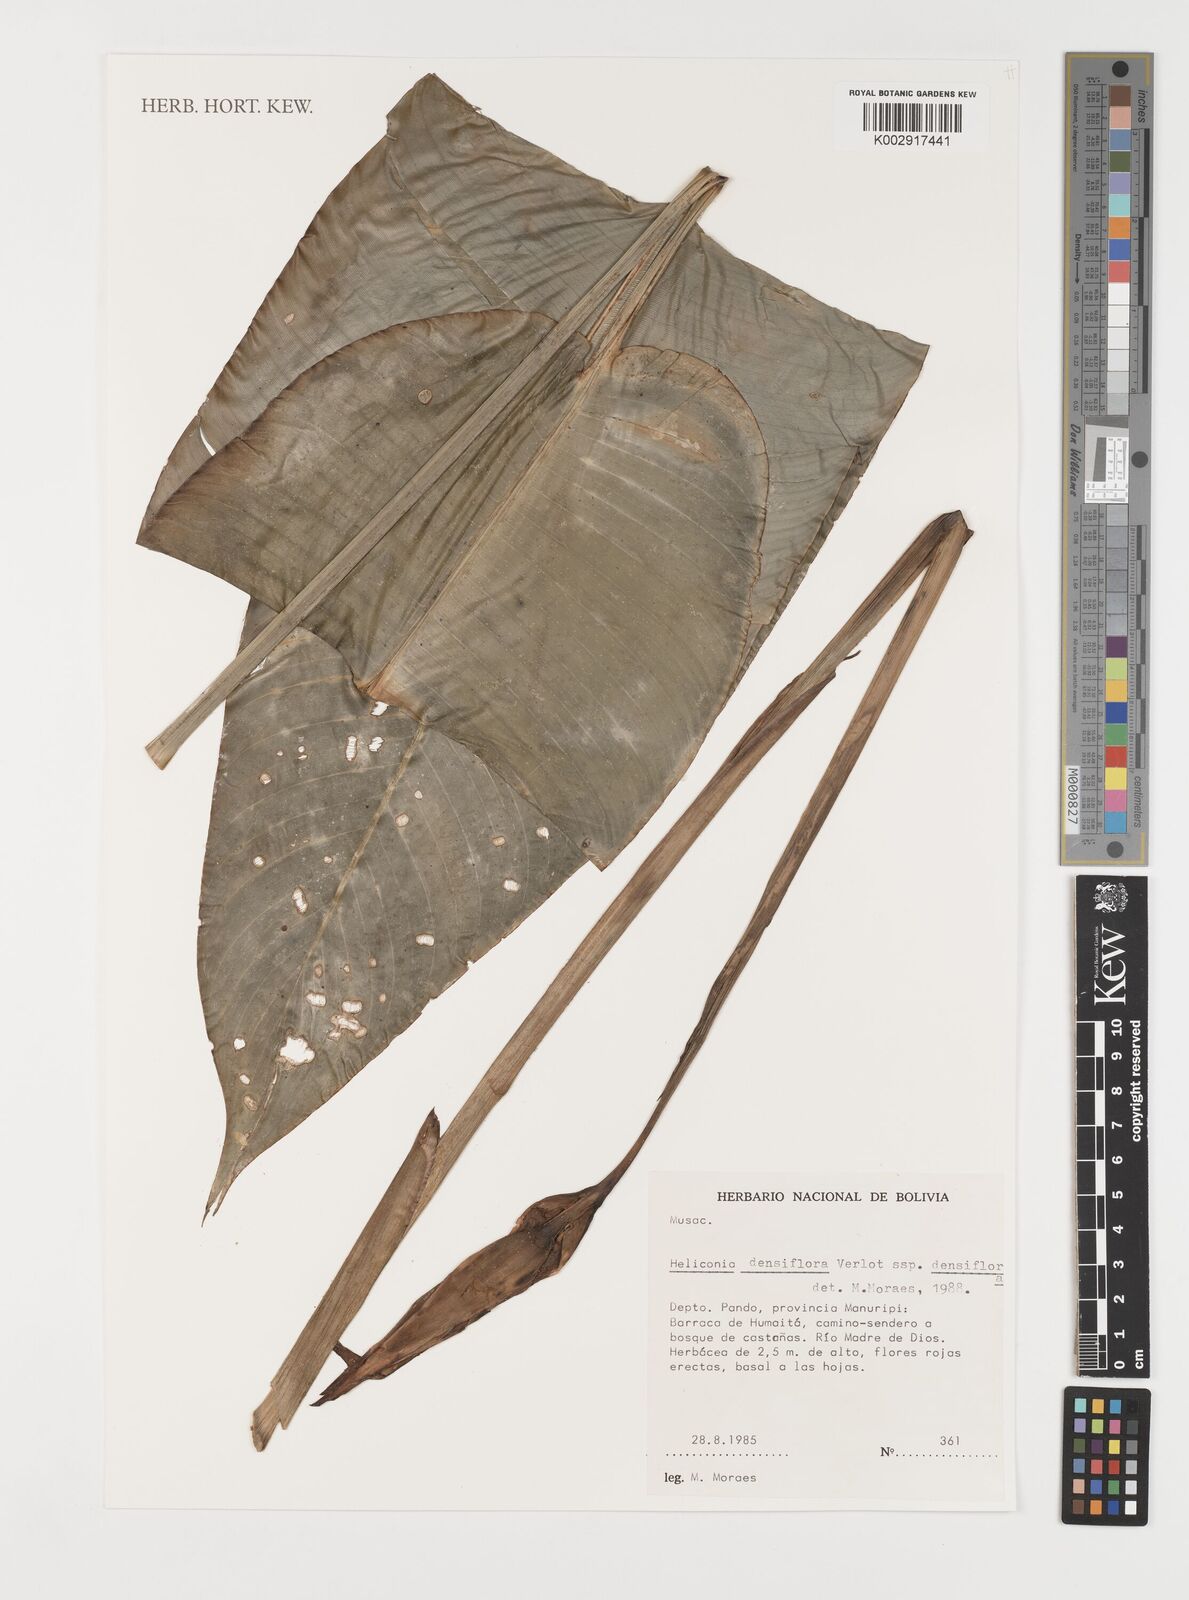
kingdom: Plantae
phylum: Tracheophyta
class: Liliopsida
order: Zingiberales
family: Heliconiaceae
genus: Heliconia
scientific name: Heliconia densiflora
